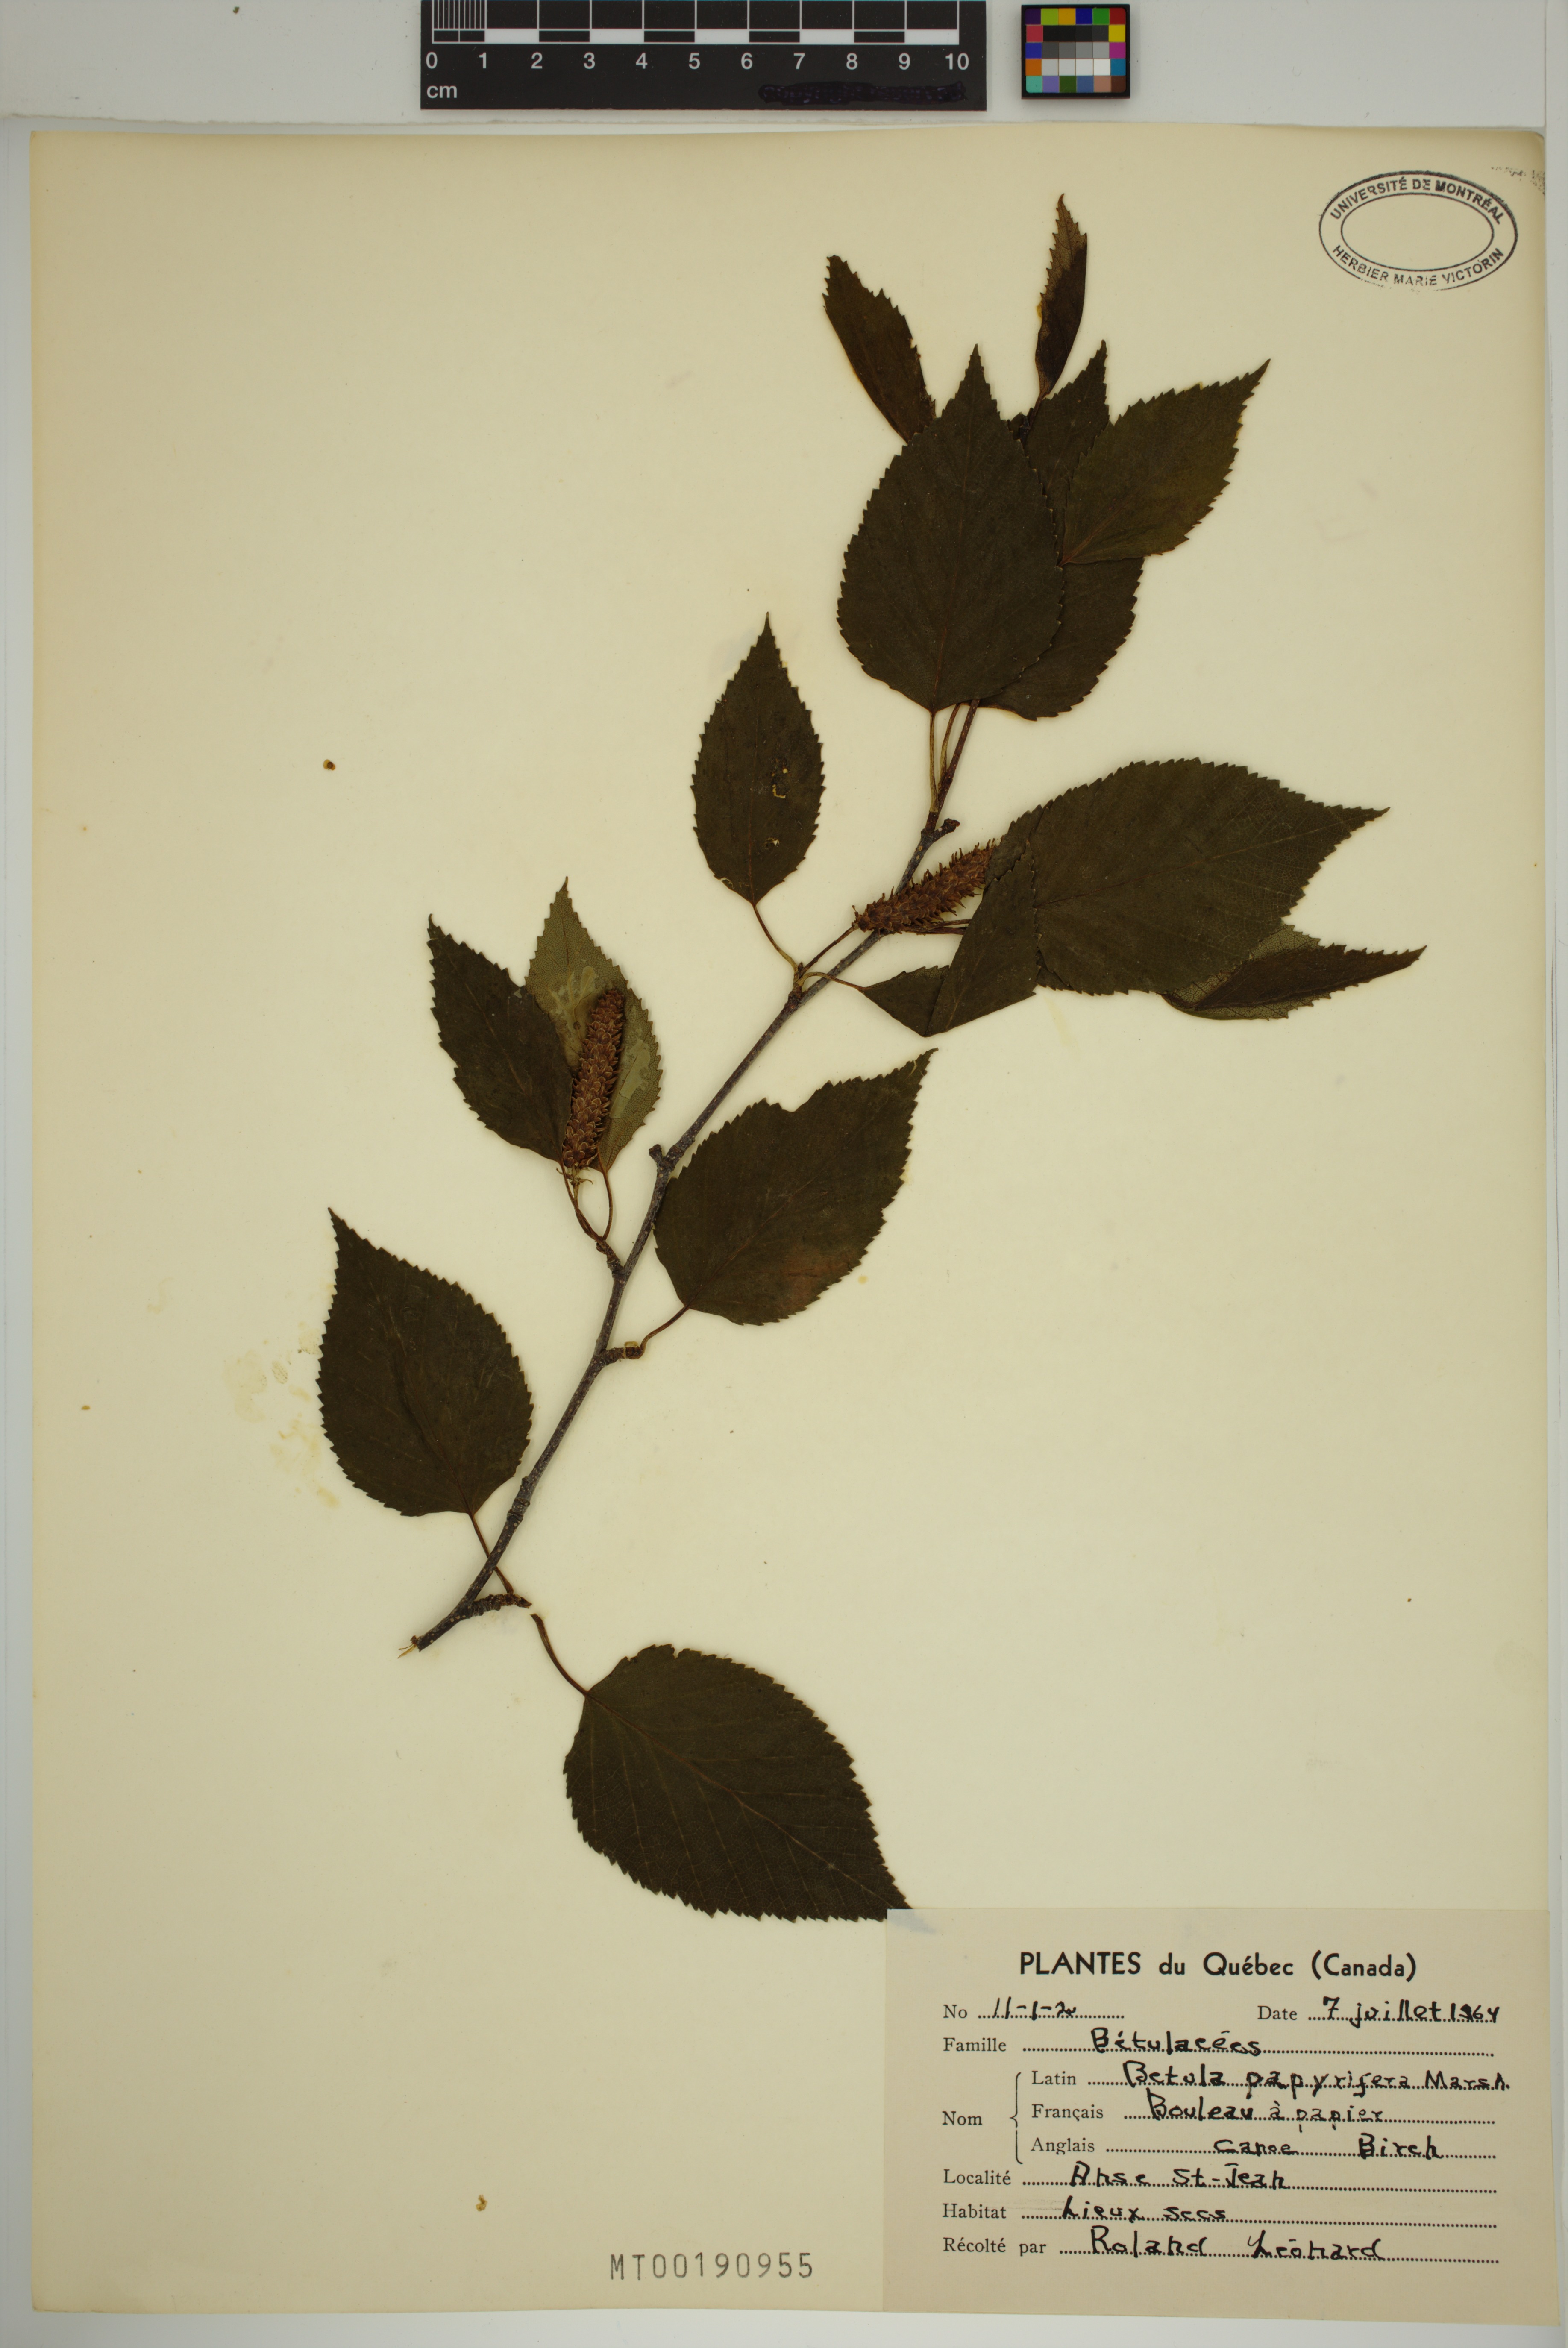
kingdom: Plantae
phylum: Tracheophyta
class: Magnoliopsida
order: Fagales
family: Betulaceae
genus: Betula
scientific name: Betula papyrifera
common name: Paper birch
